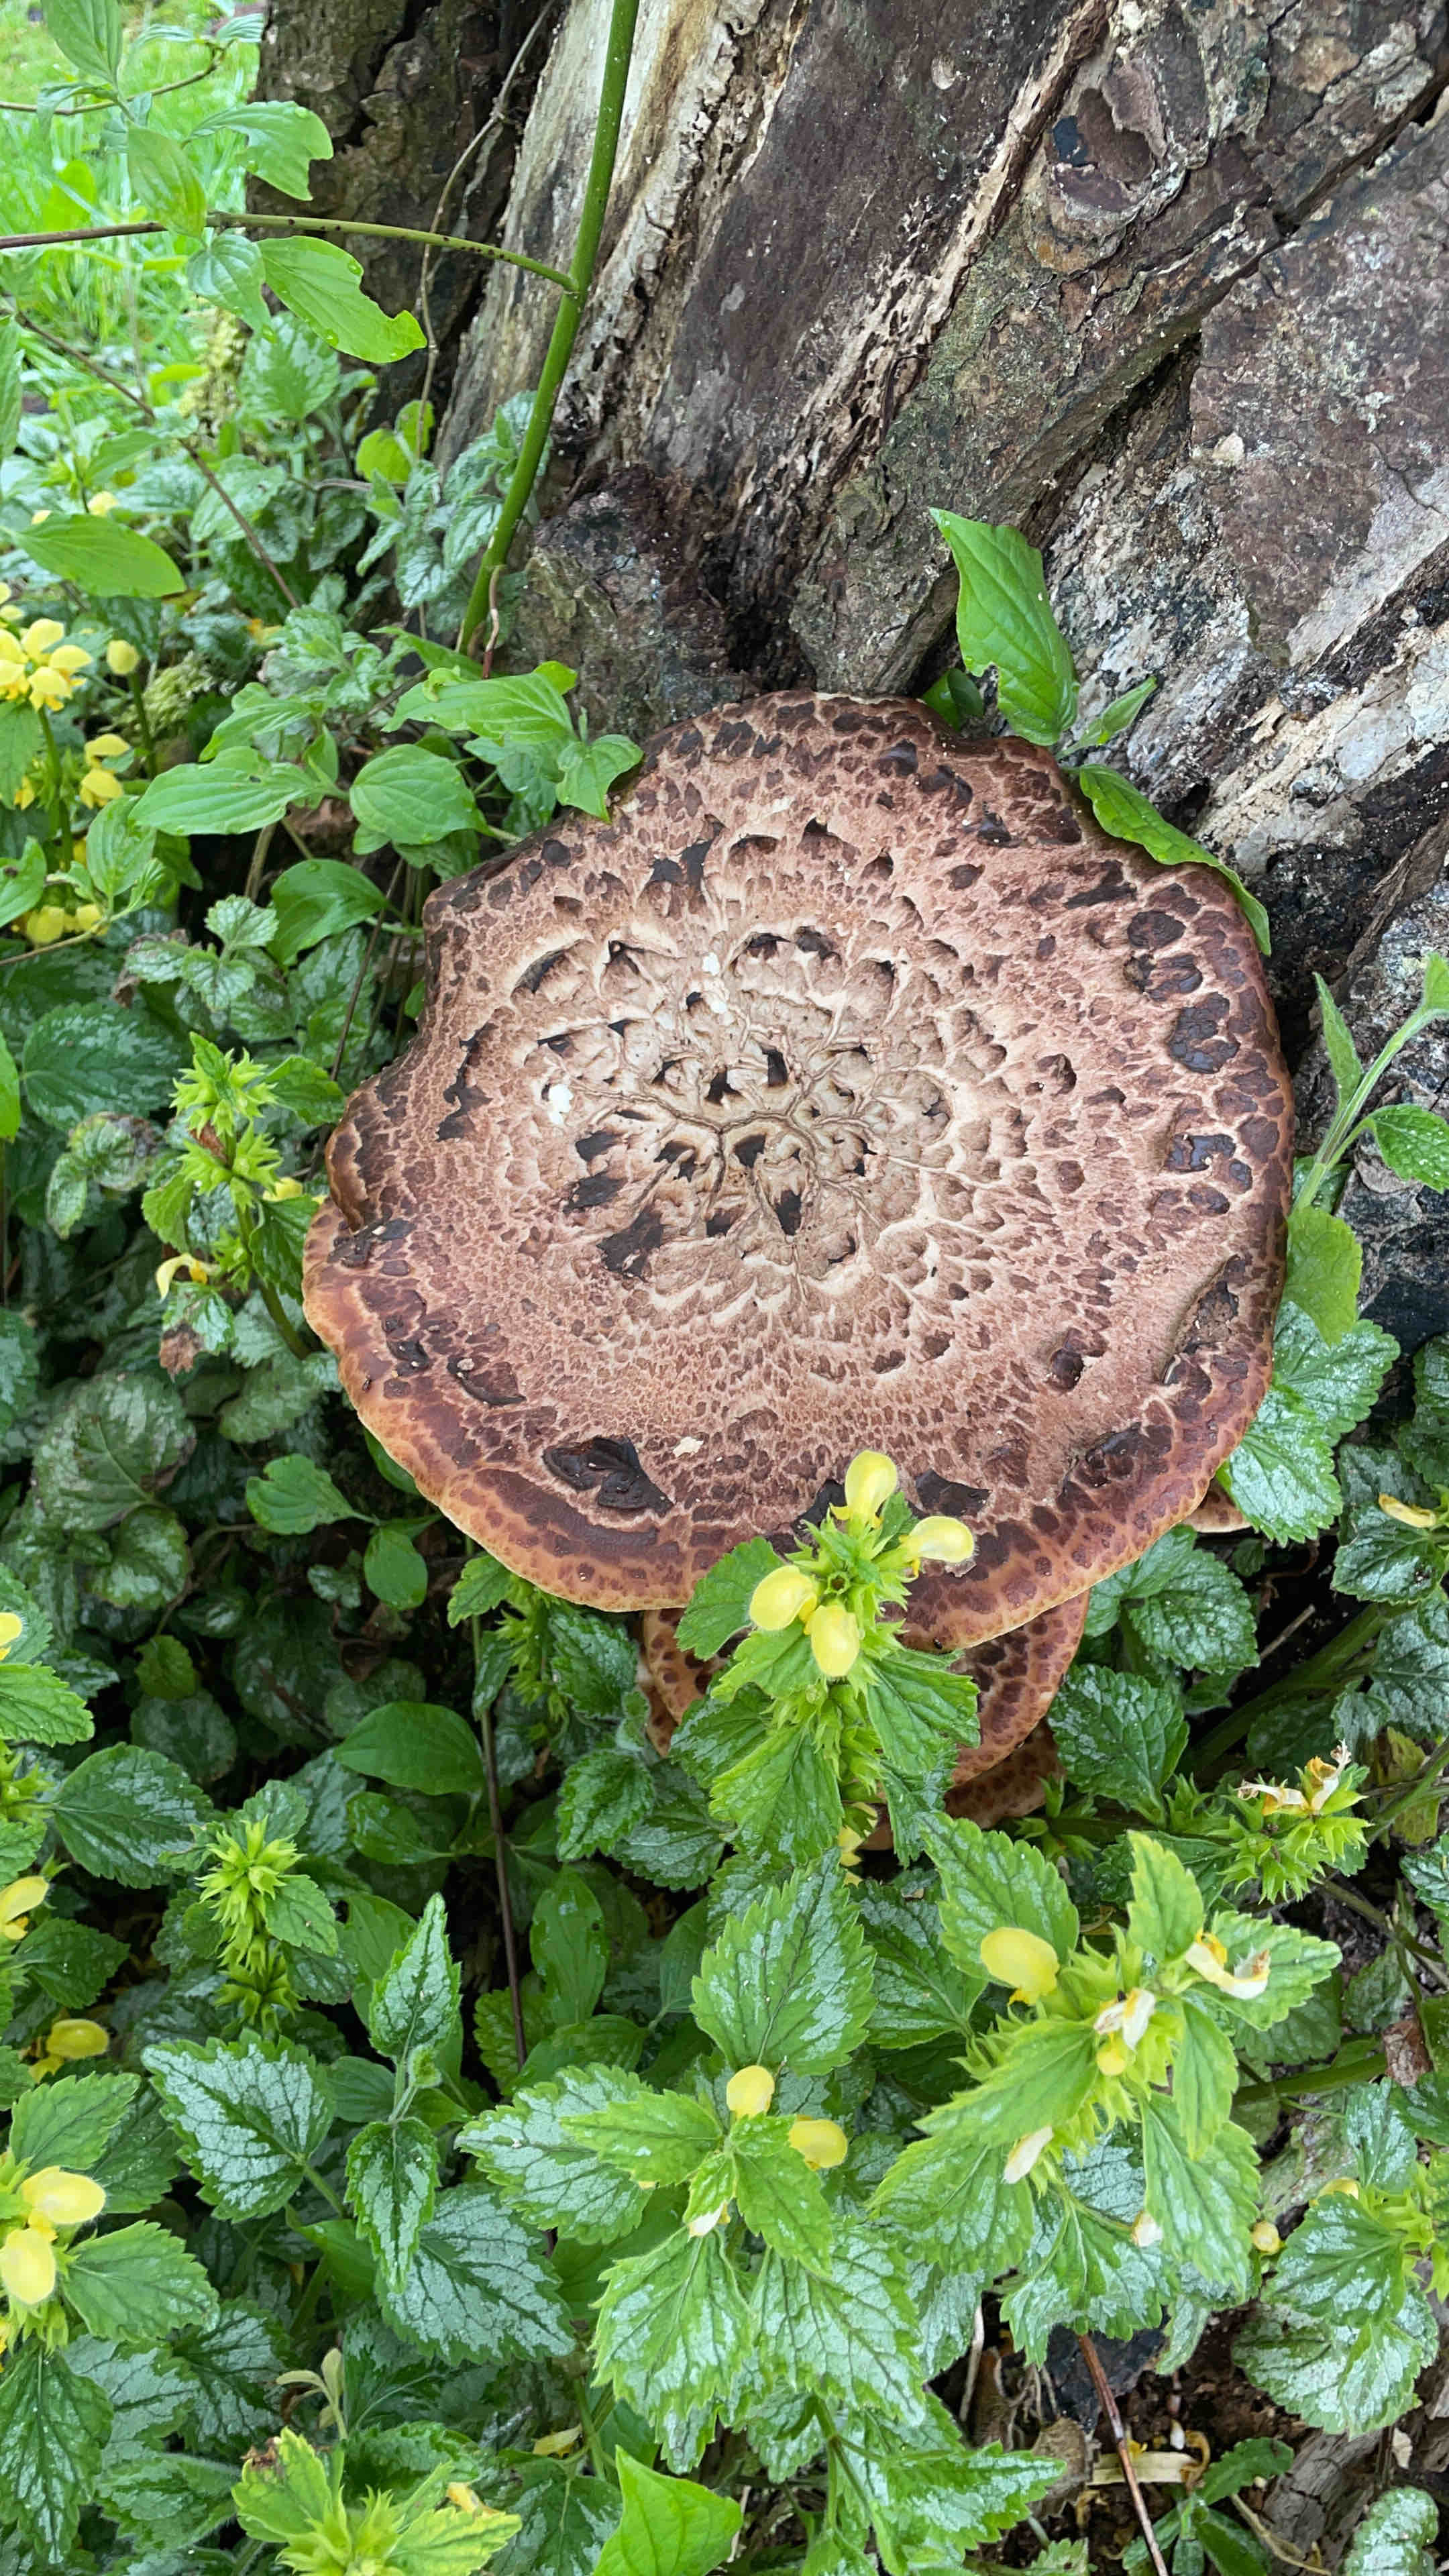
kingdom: Fungi
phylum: Basidiomycota
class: Agaricomycetes
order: Polyporales
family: Polyporaceae
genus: Cerioporus
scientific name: Cerioporus squamosus
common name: skællet stilkporesvamp
